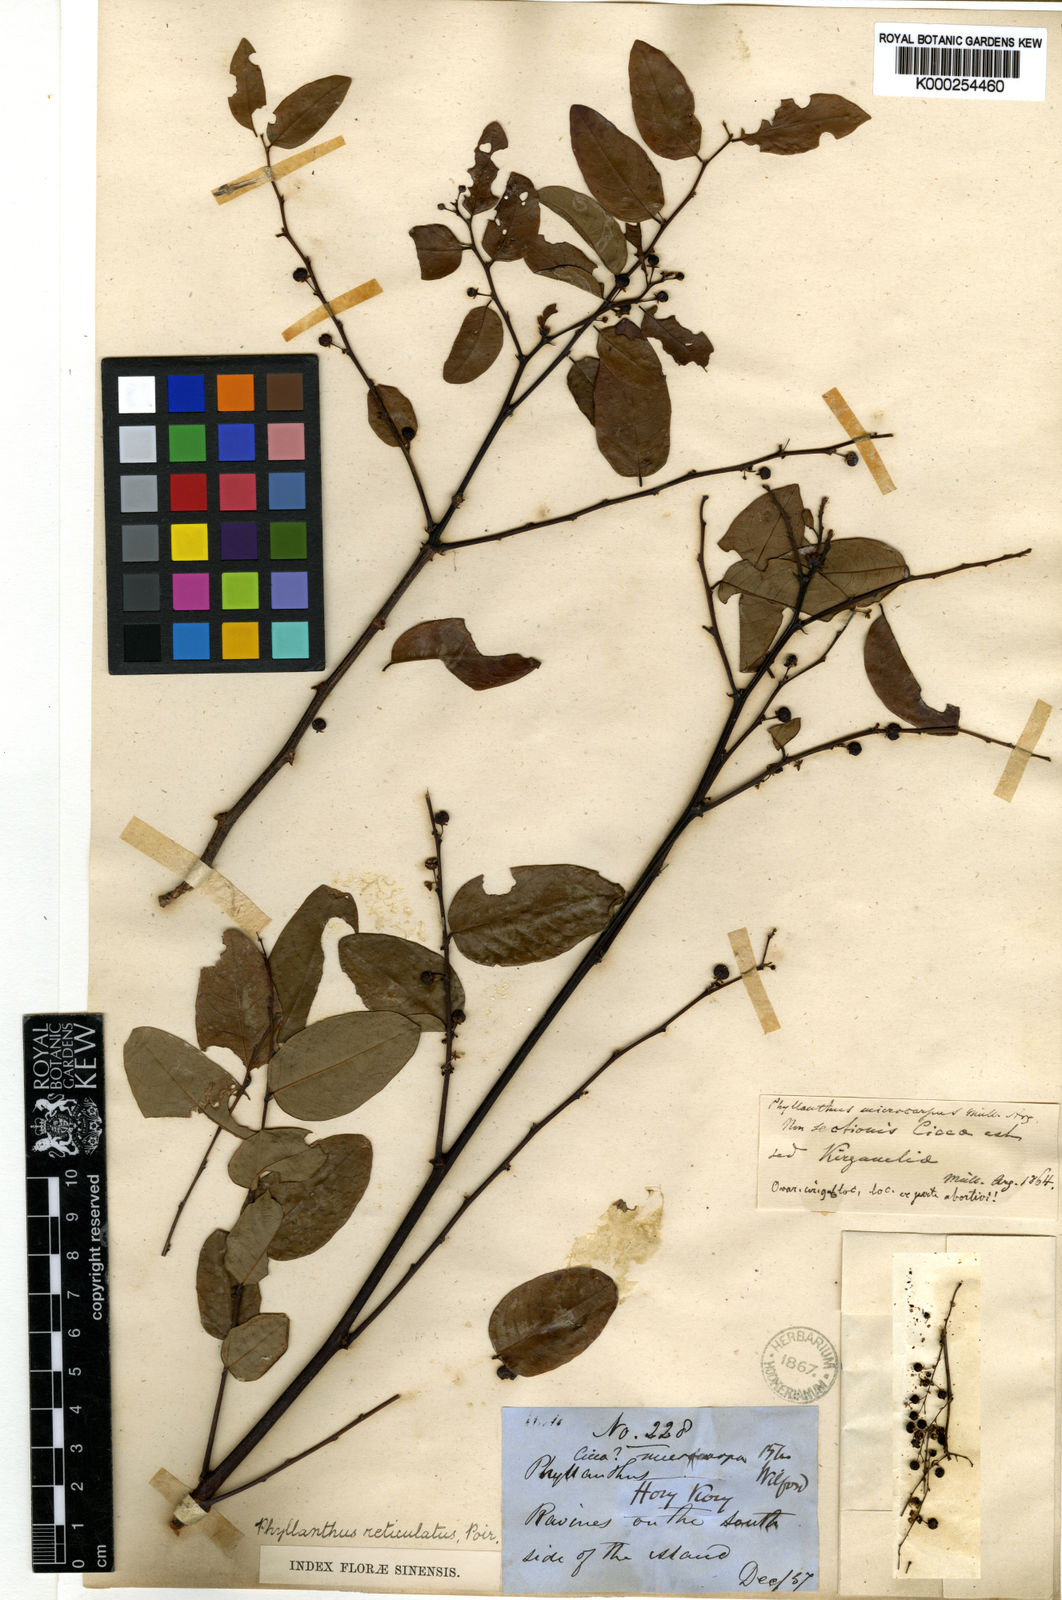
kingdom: Plantae
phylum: Tracheophyta
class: Magnoliopsida
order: Malpighiales
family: Phyllanthaceae
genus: Phyllanthus
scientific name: Phyllanthus
